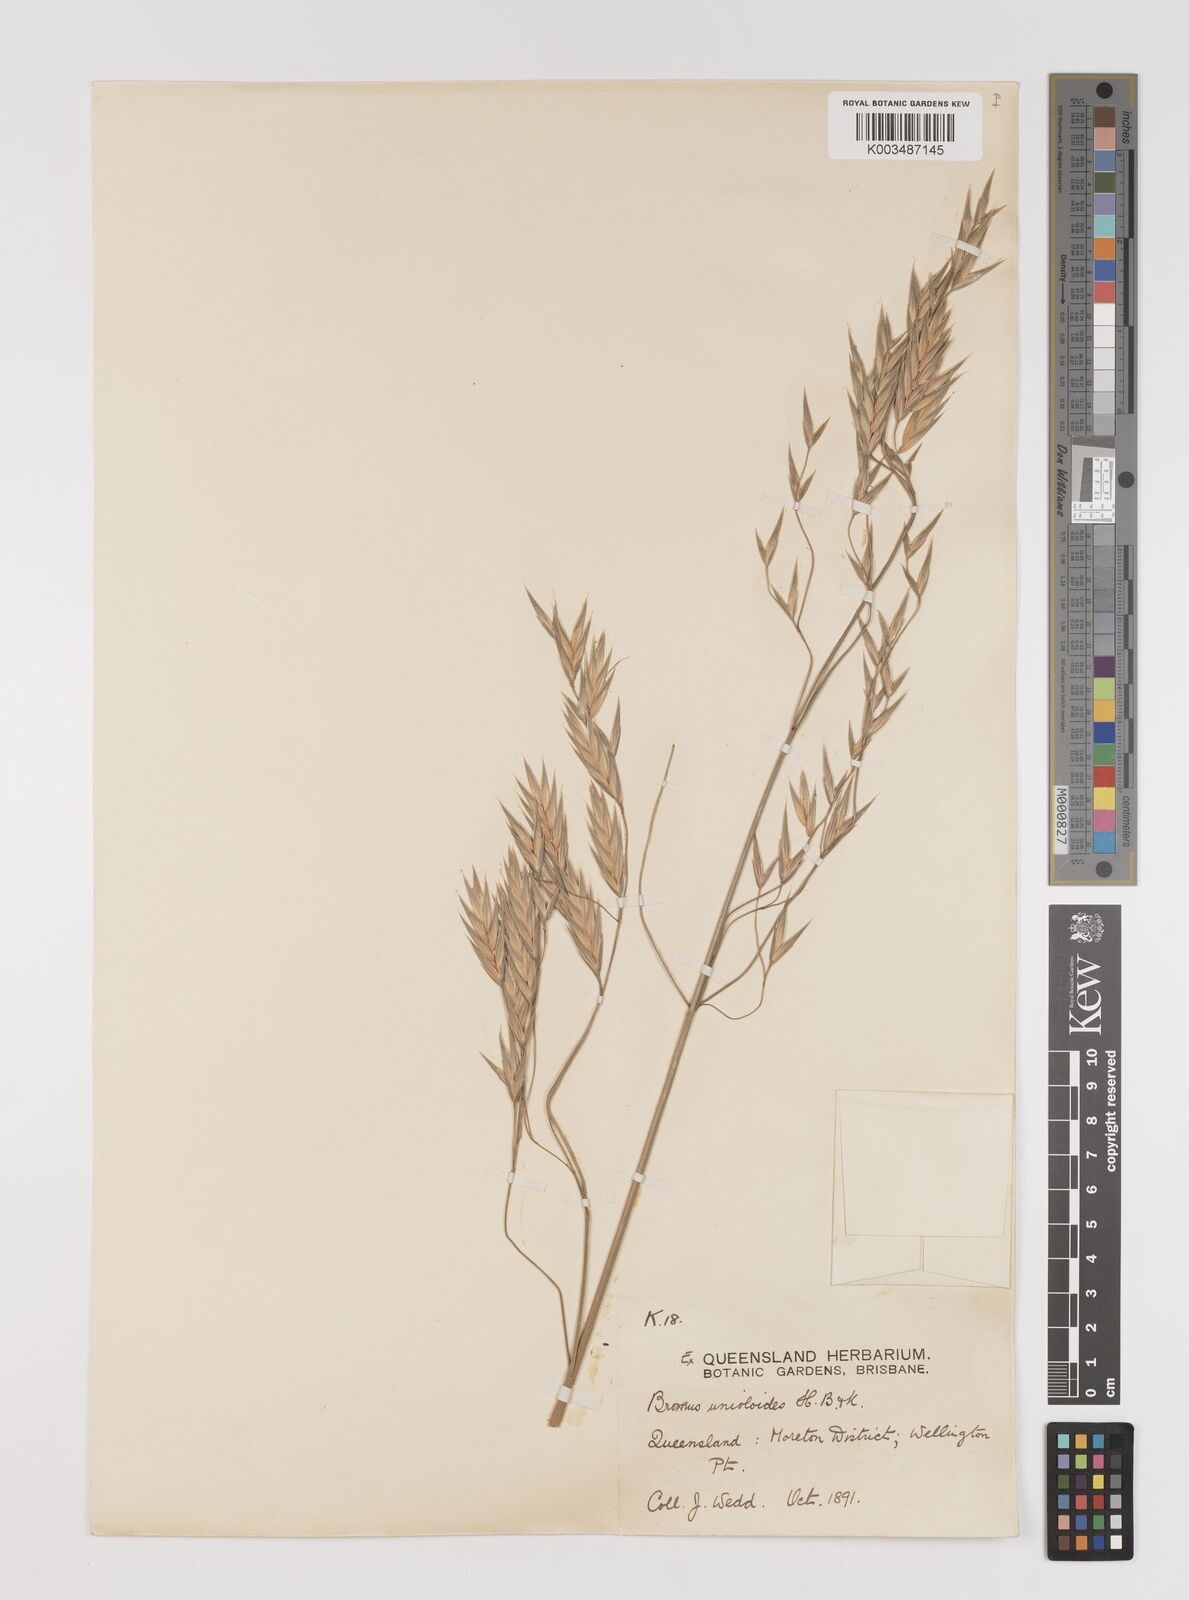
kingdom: Plantae
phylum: Tracheophyta
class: Liliopsida
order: Poales
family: Poaceae
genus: Bromus
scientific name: Bromus catharticus
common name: Rescuegrass
